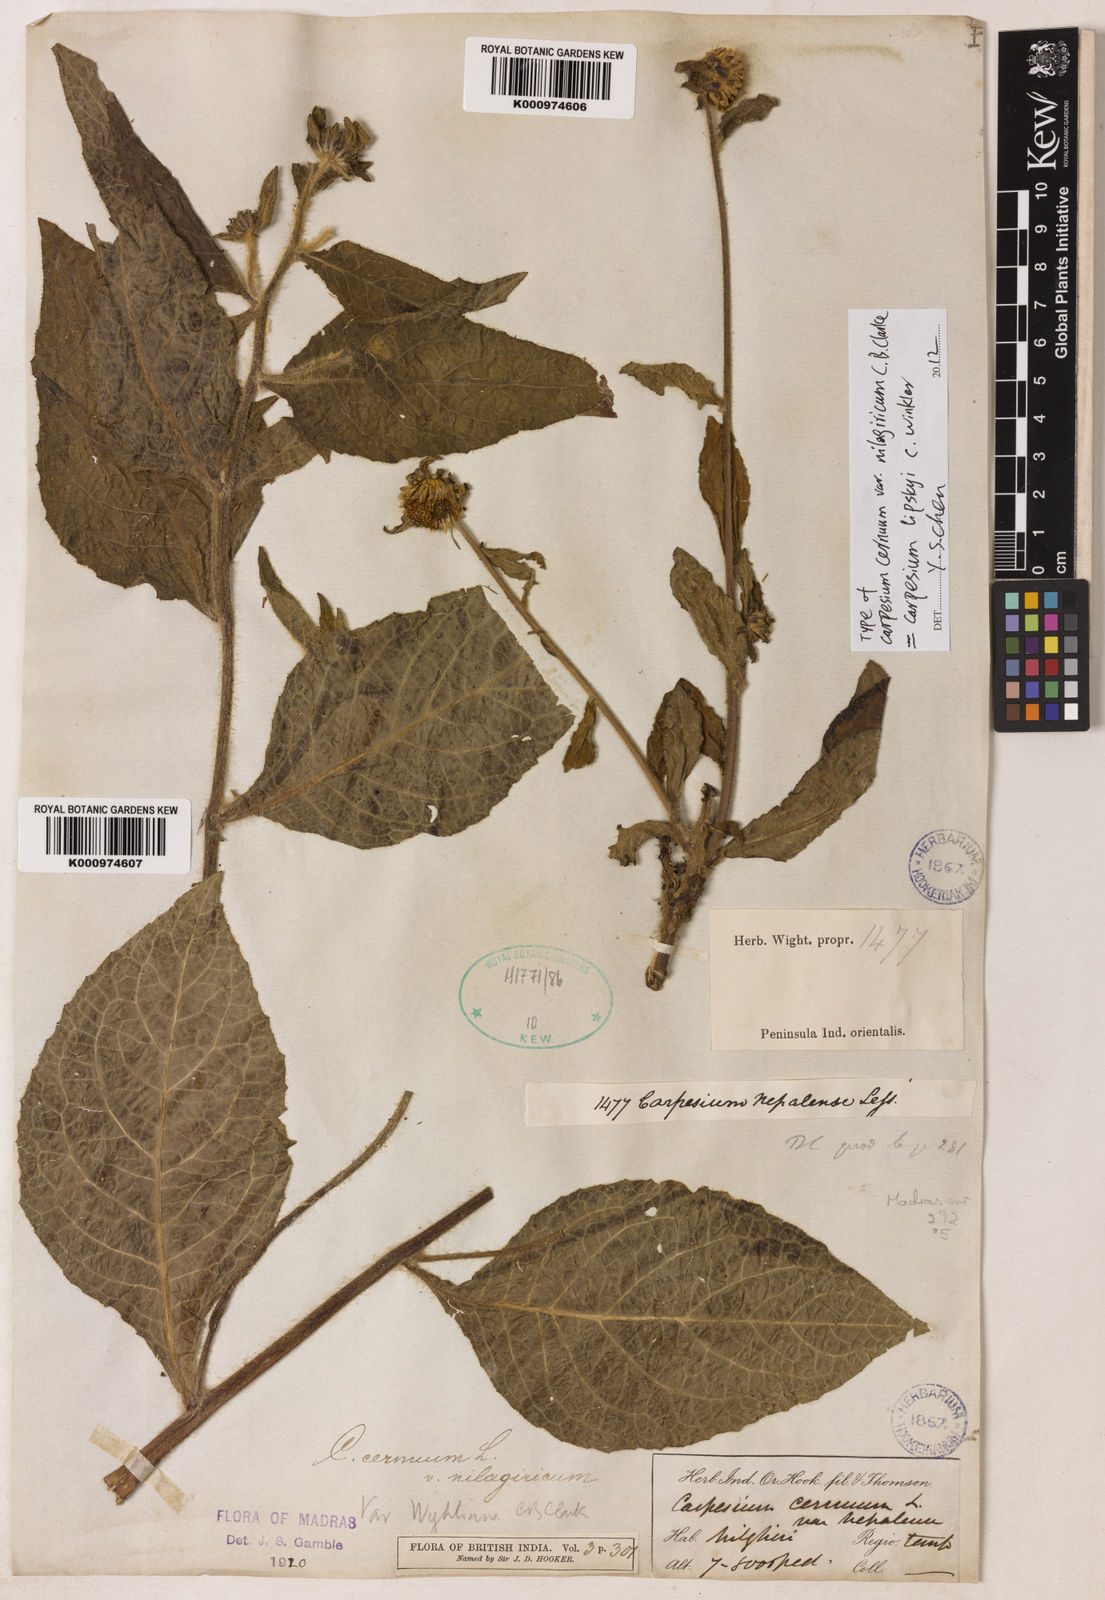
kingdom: Plantae
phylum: Tracheophyta
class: Magnoliopsida
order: Asterales
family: Asteraceae
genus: Carpesium
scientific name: Carpesium nepalense
